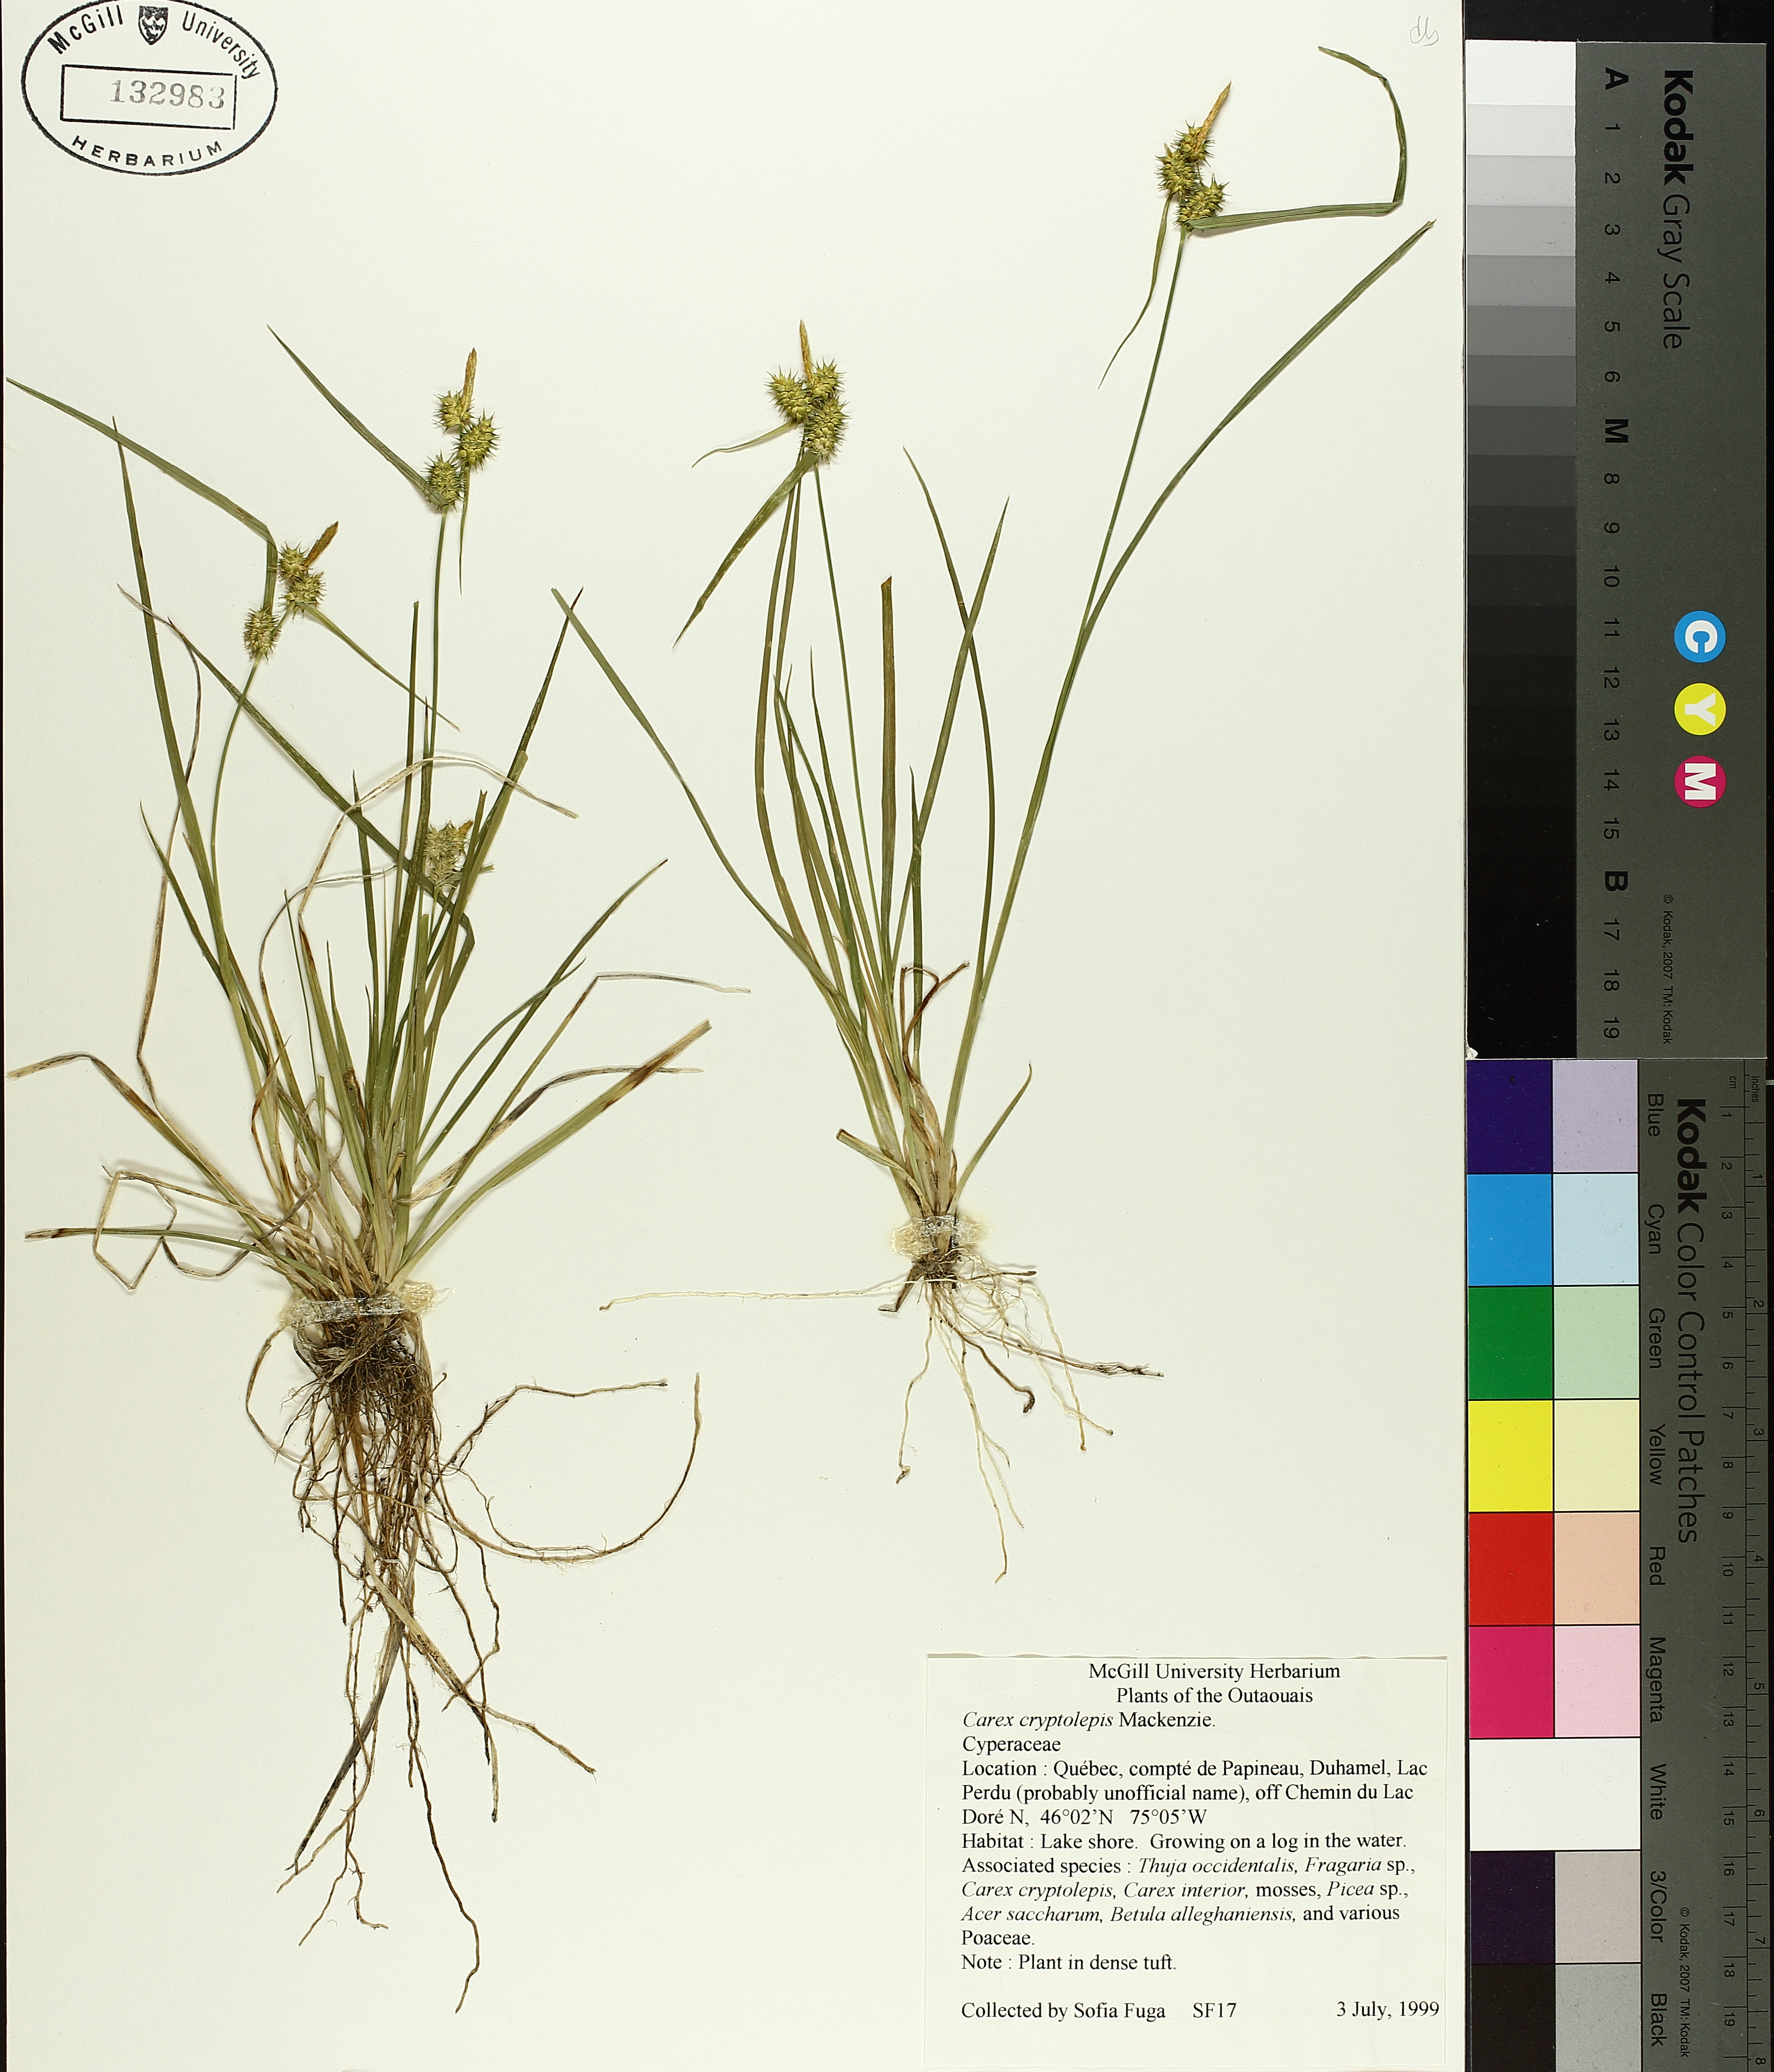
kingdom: Plantae
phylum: Tracheophyta
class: Liliopsida
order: Poales
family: Cyperaceae
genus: Carex
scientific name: Carex cryptolepis
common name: Northeastern sedge
